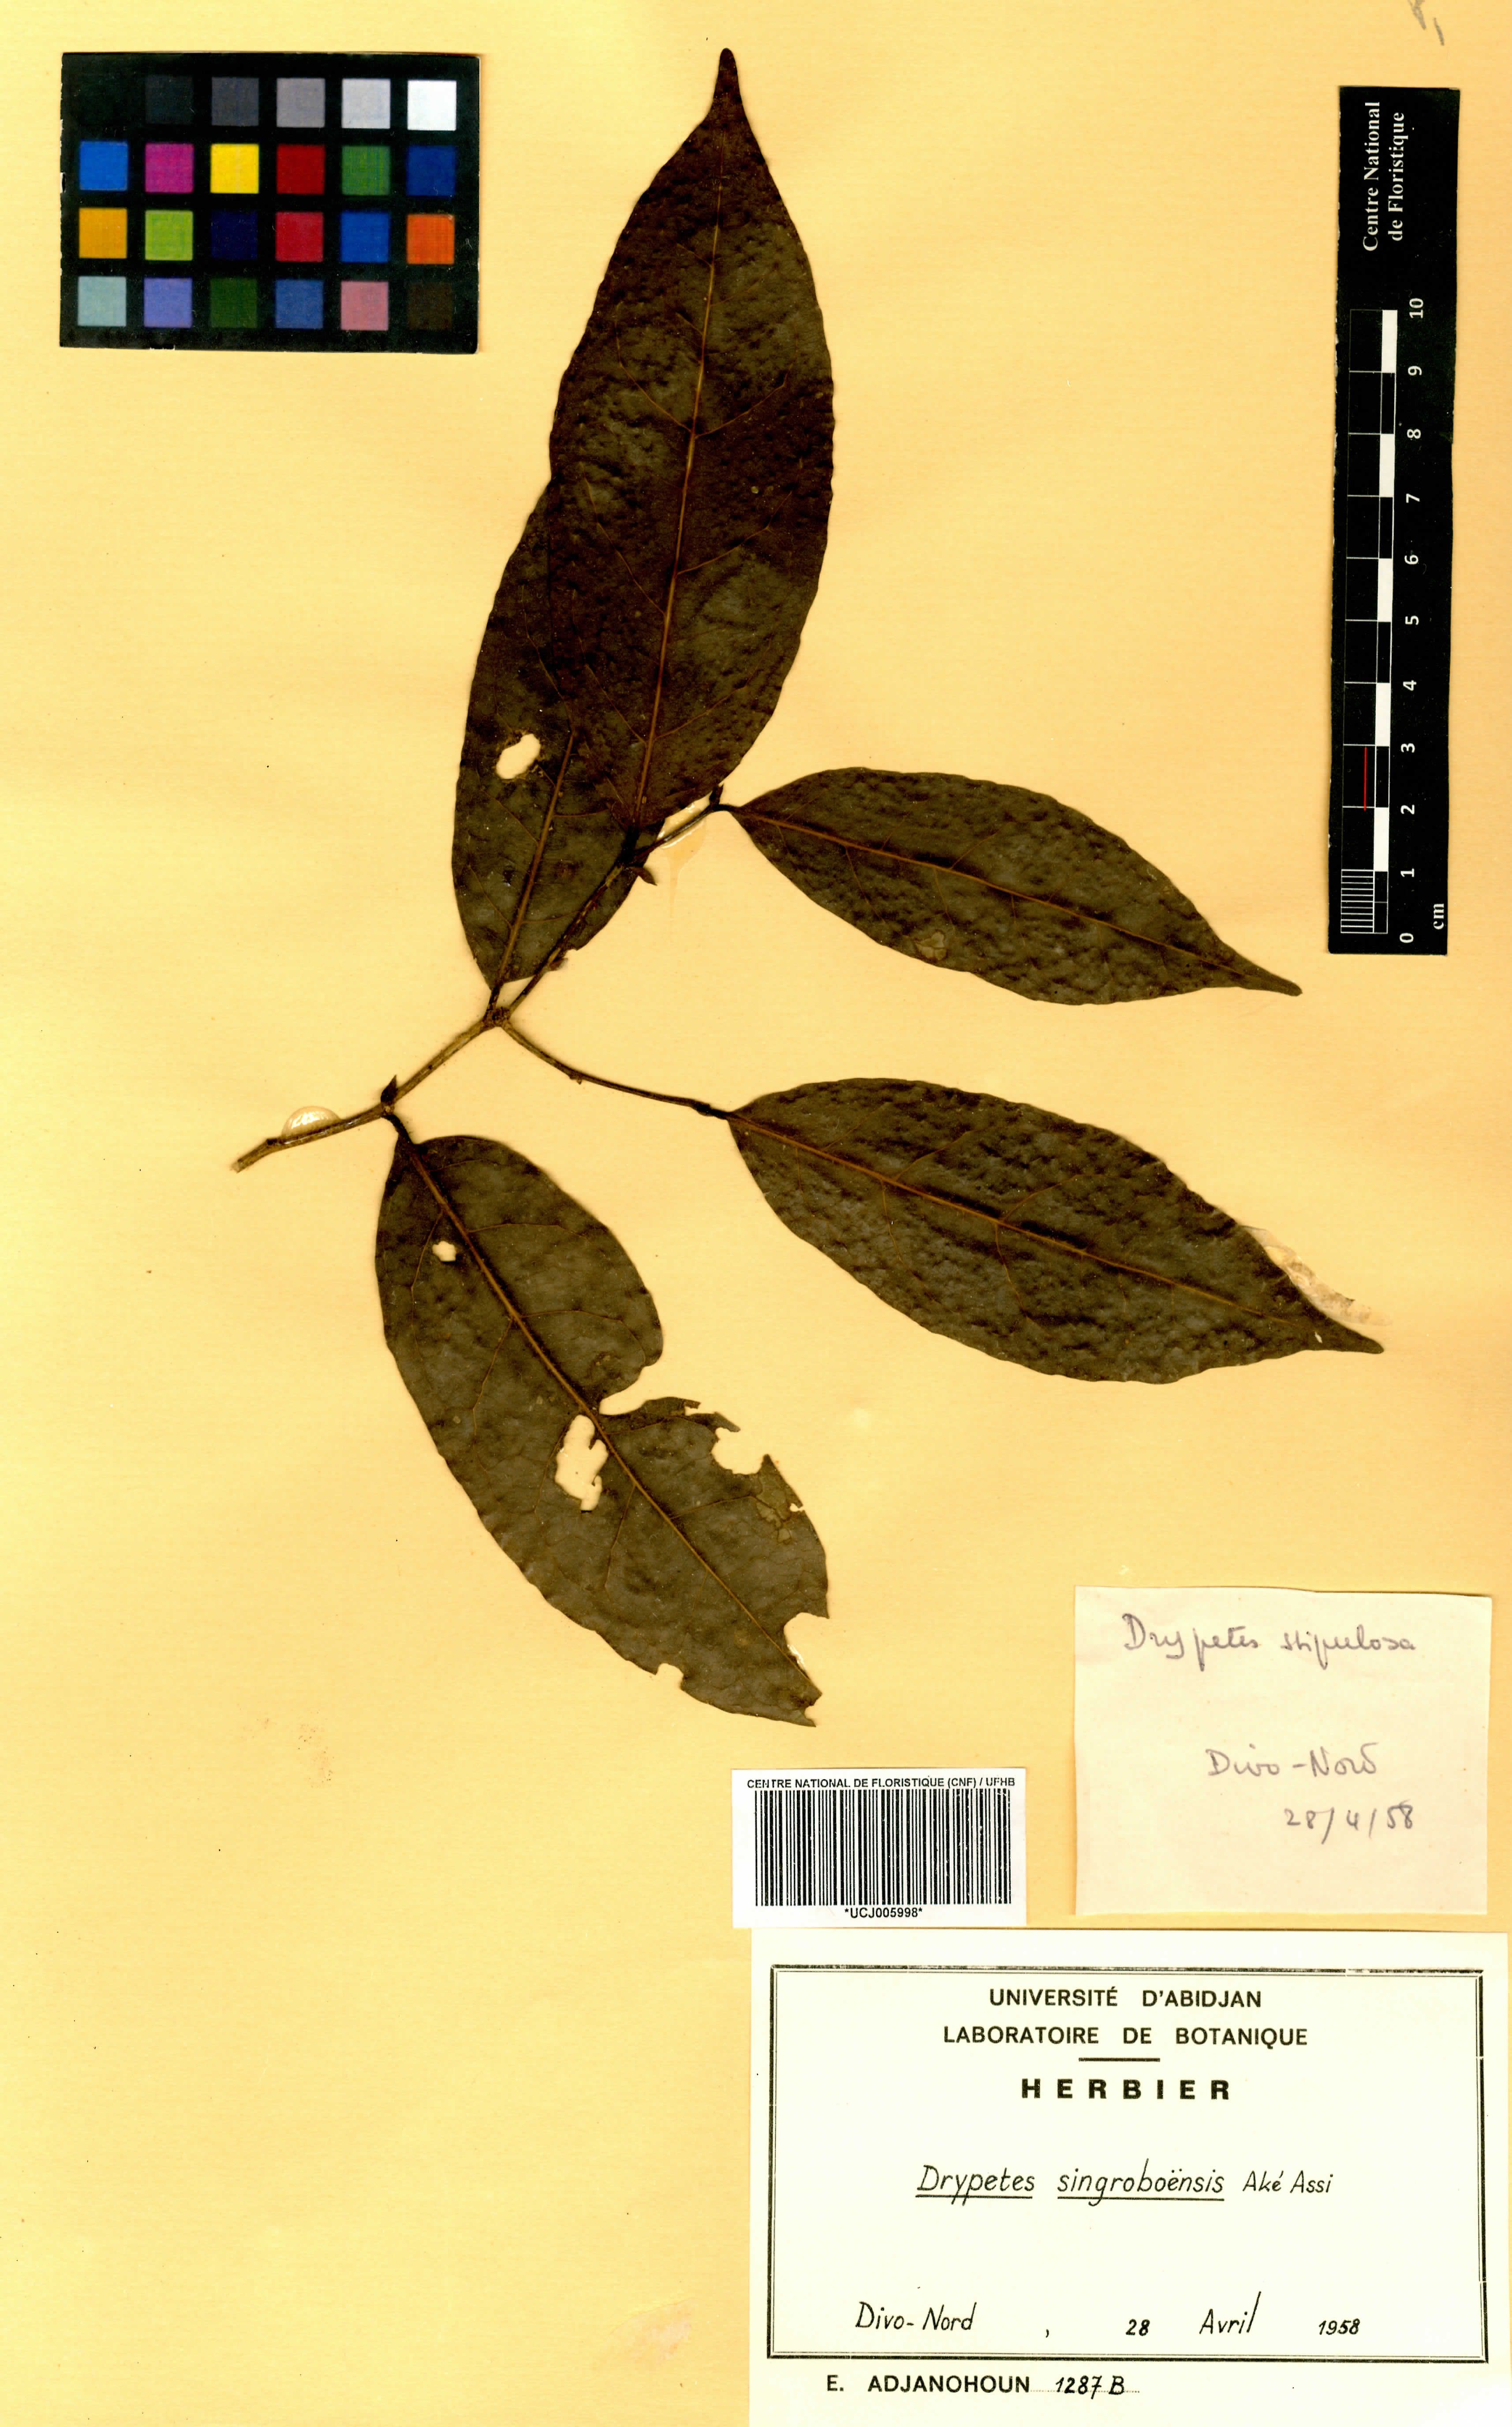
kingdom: Plantae
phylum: Tracheophyta
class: Magnoliopsida
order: Malpighiales
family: Putranjivaceae
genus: Drypetes
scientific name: Drypetes singroboensis
